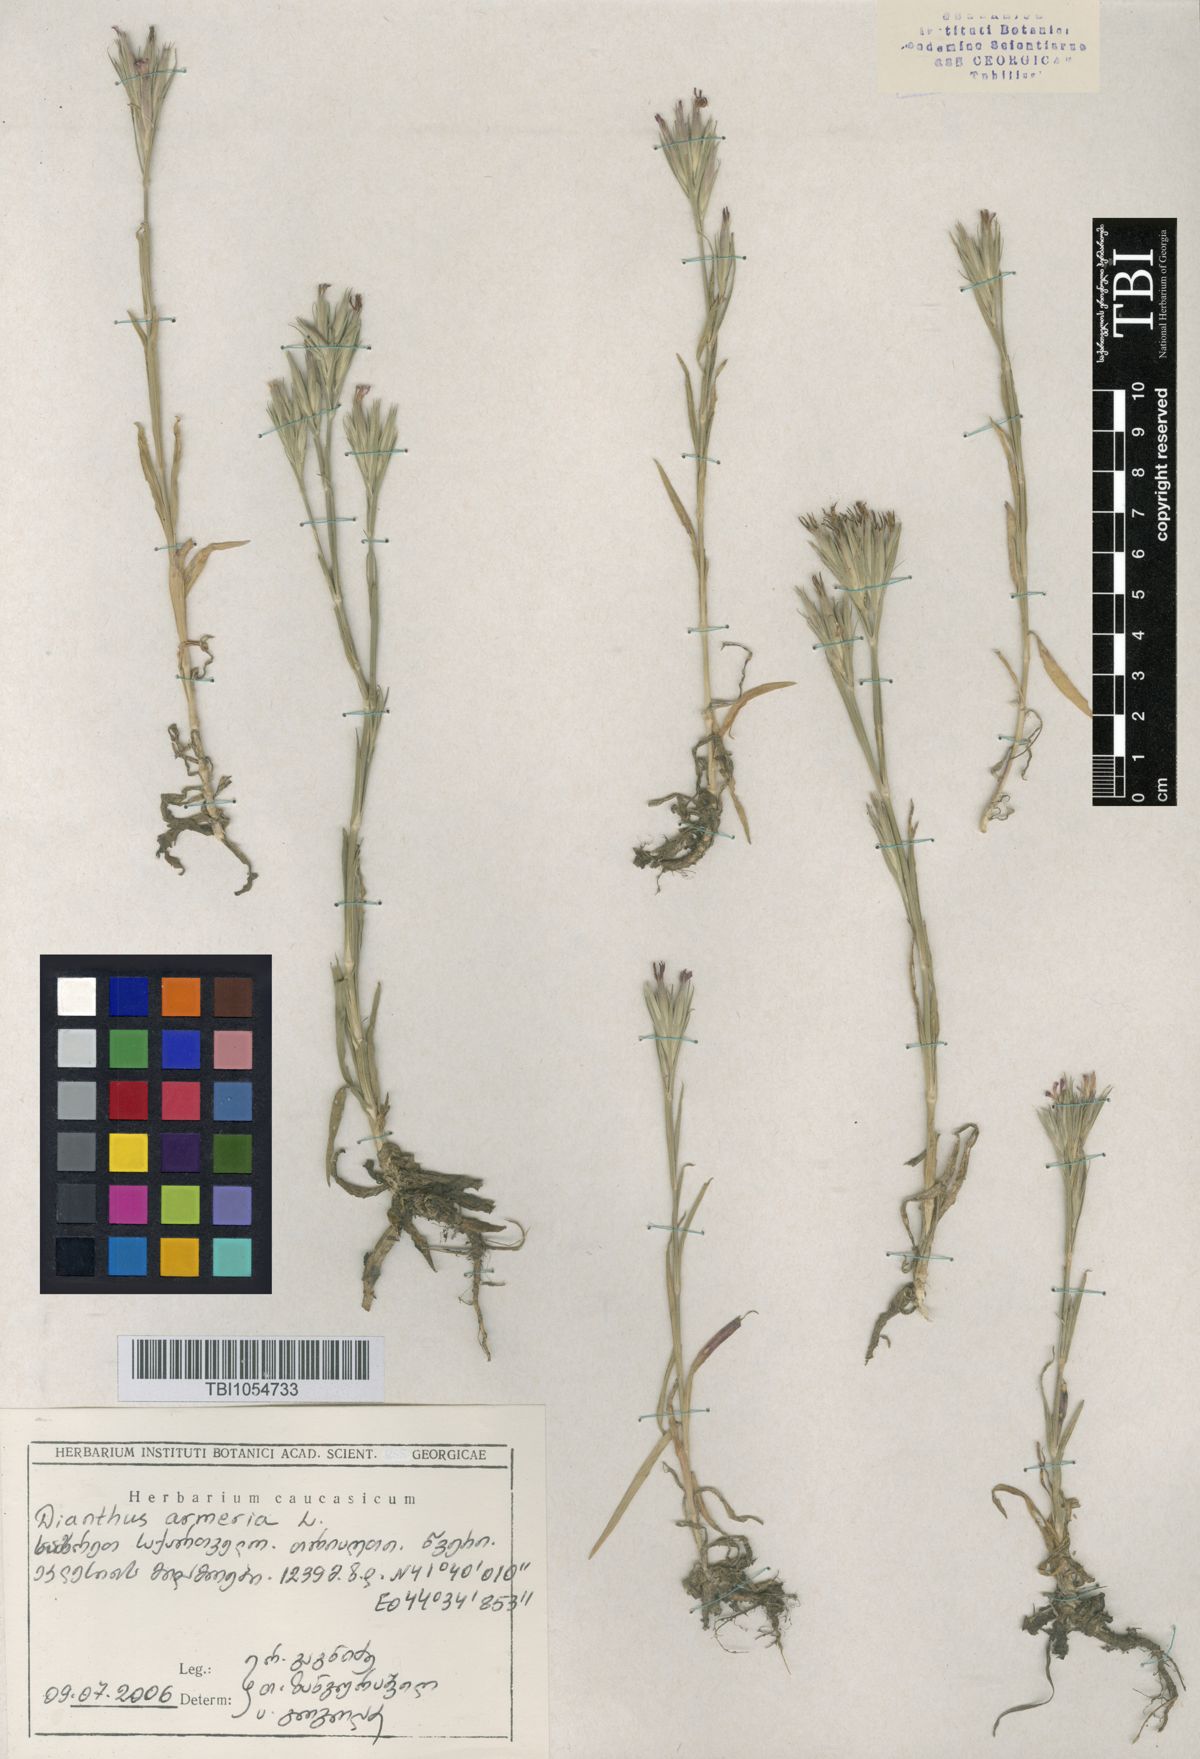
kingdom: Plantae
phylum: Tracheophyta
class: Magnoliopsida
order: Caryophyllales
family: Caryophyllaceae
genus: Dianthus
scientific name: Dianthus armeria
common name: Deptford pink
